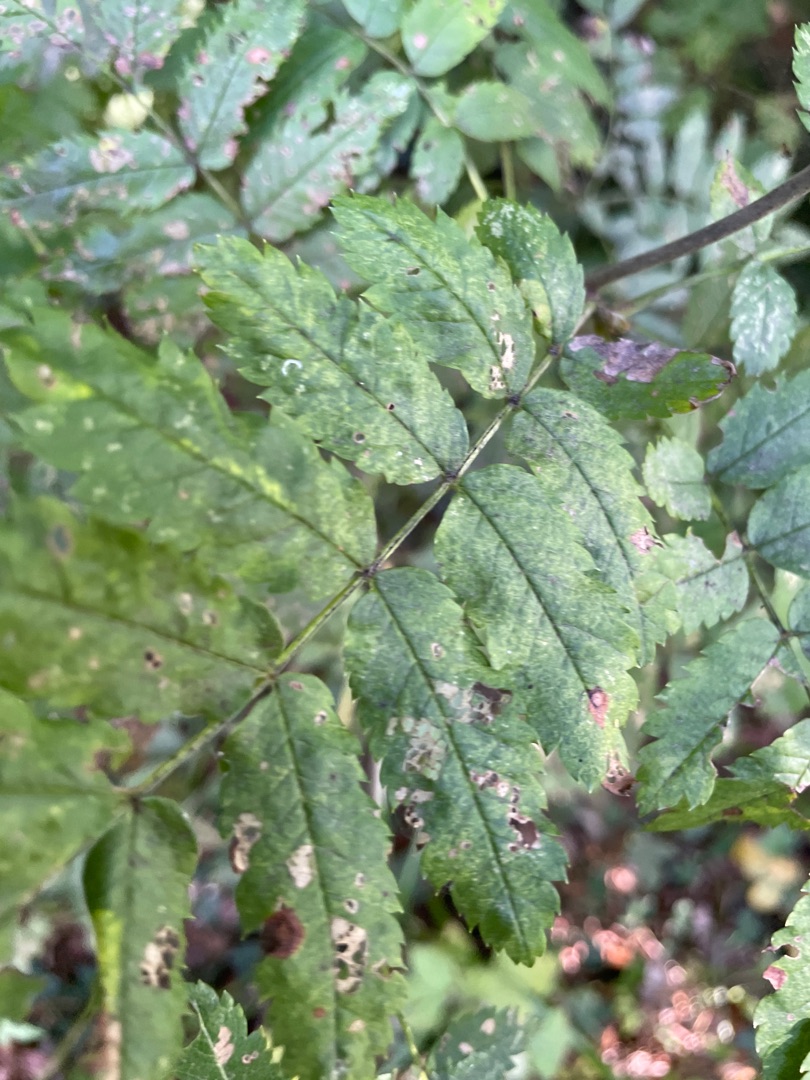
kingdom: Plantae
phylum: Tracheophyta
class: Magnoliopsida
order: Rosales
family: Rosaceae
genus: Sorbus
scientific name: Sorbus aucuparia
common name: Almindelig røn
